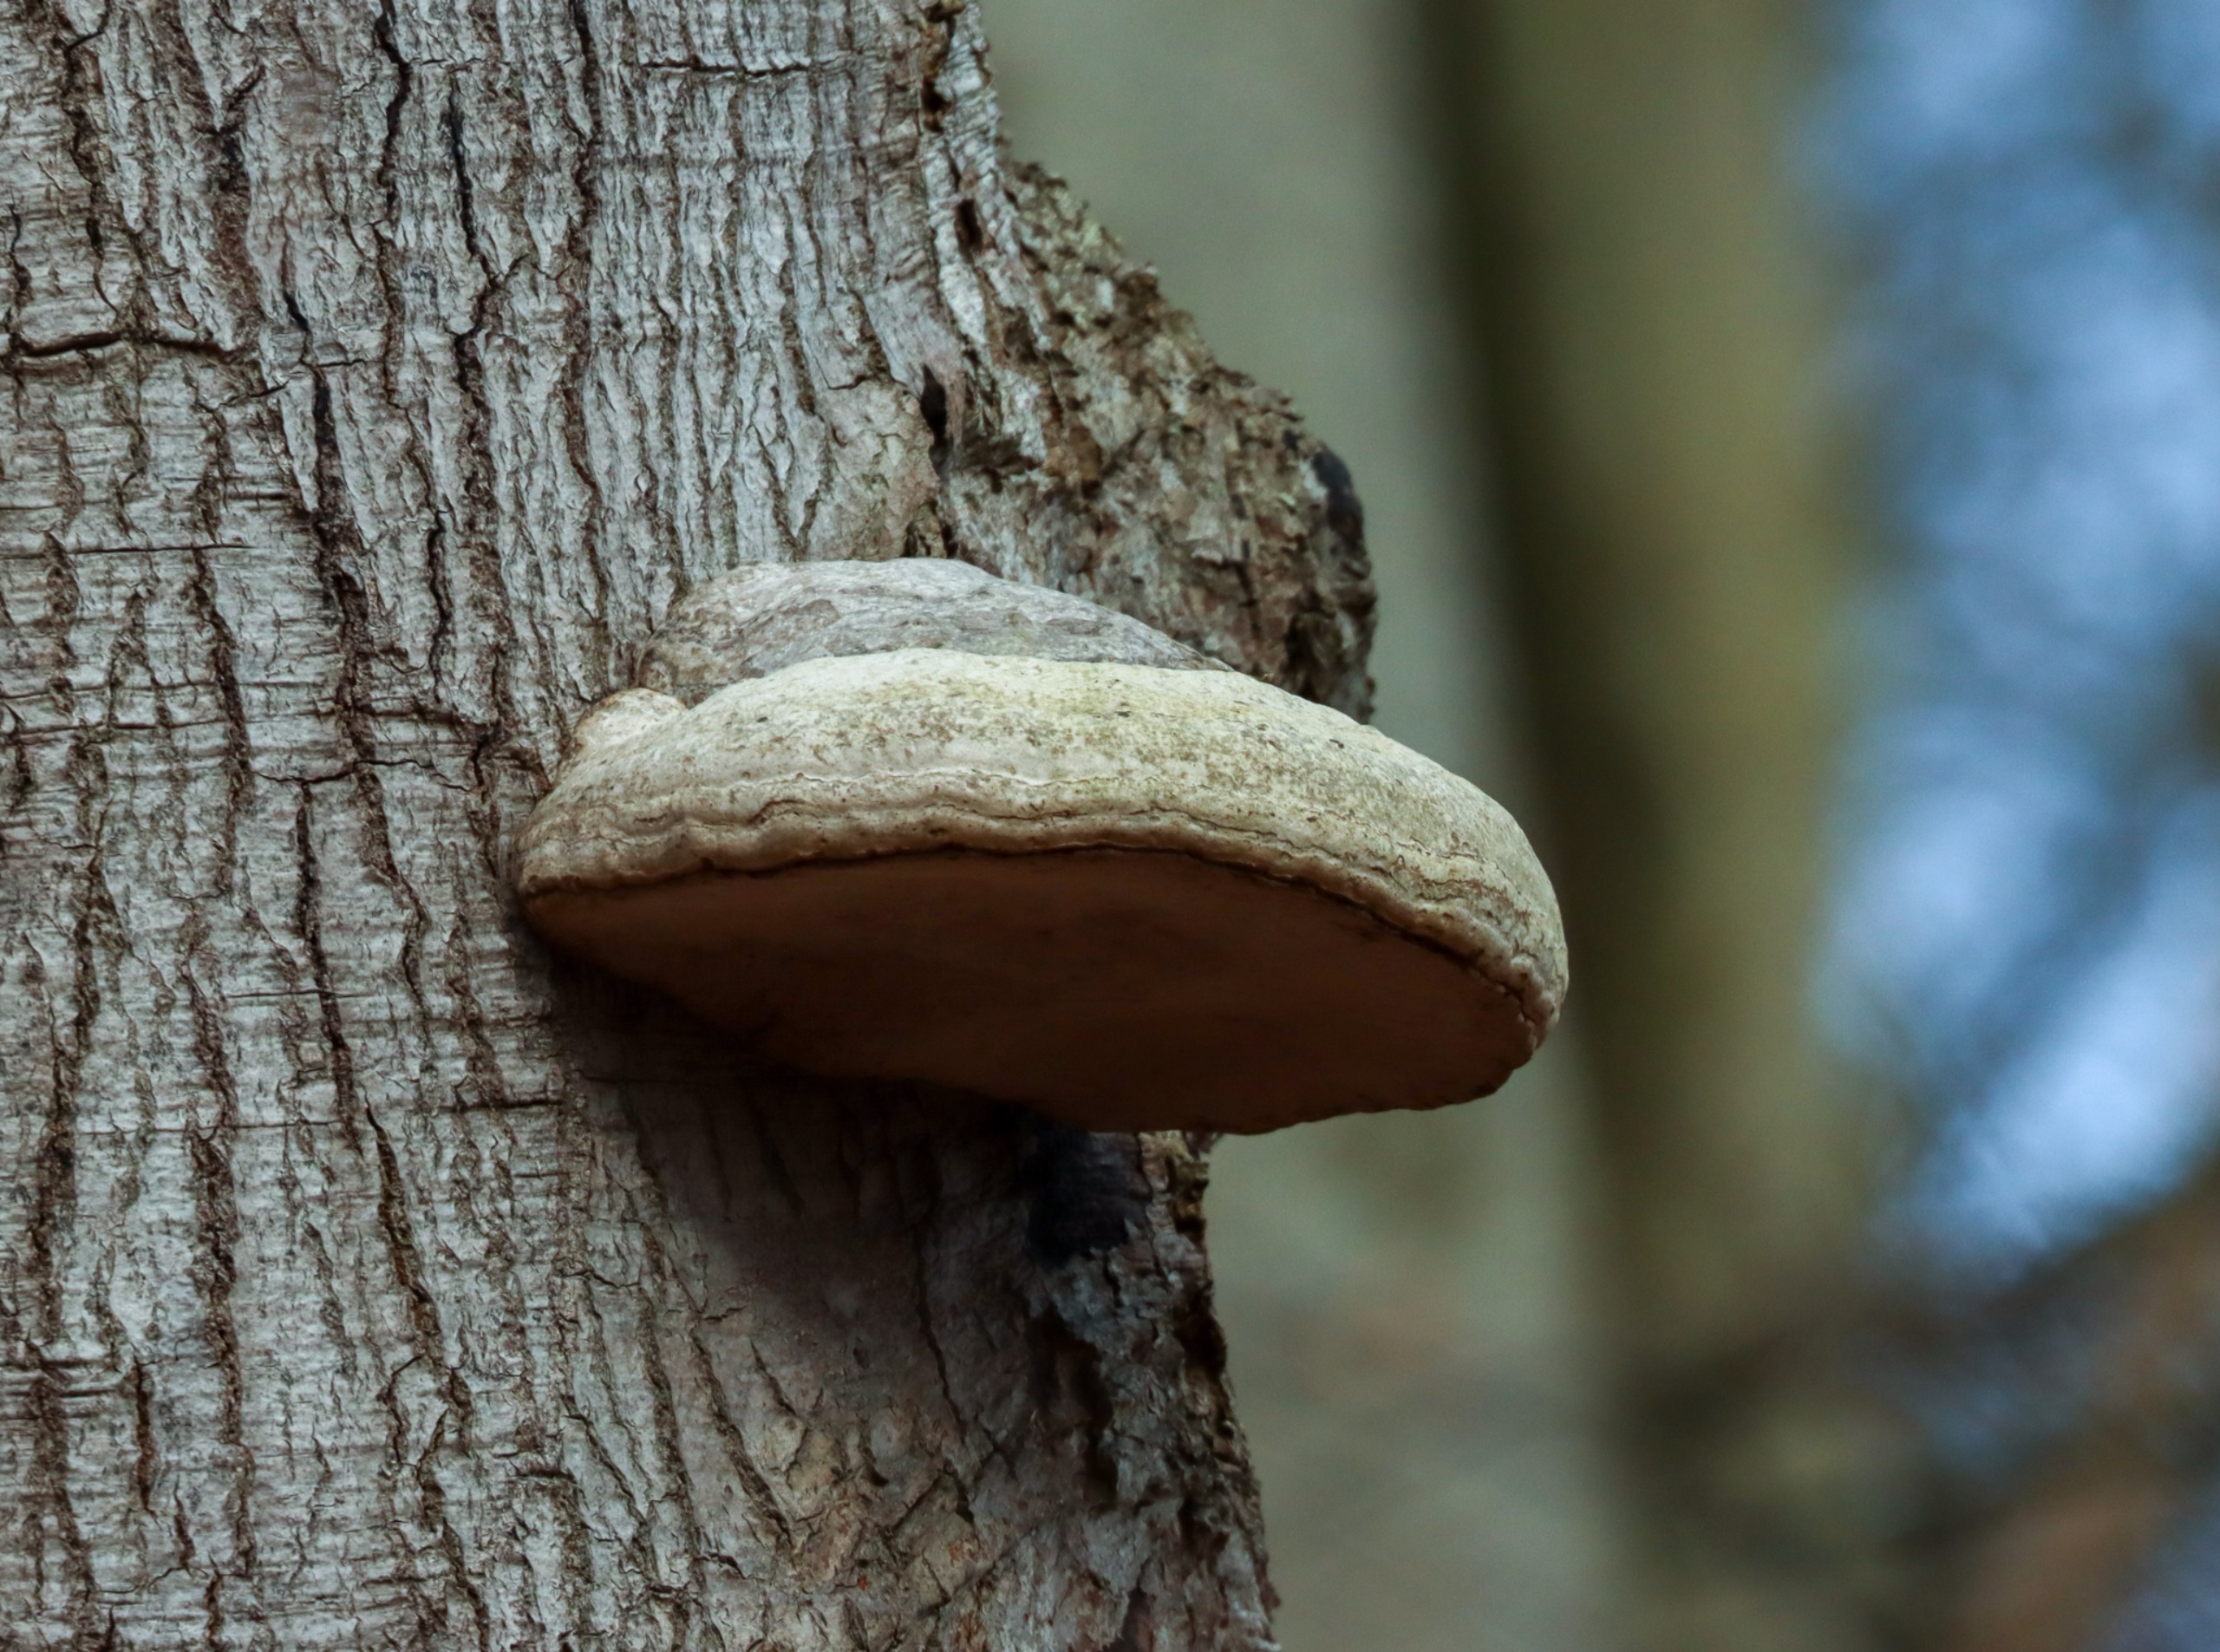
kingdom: Fungi
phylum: Basidiomycota
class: Agaricomycetes
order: Polyporales
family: Polyporaceae
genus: Fomes
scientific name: Fomes fomentarius
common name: Tøndersvamp
